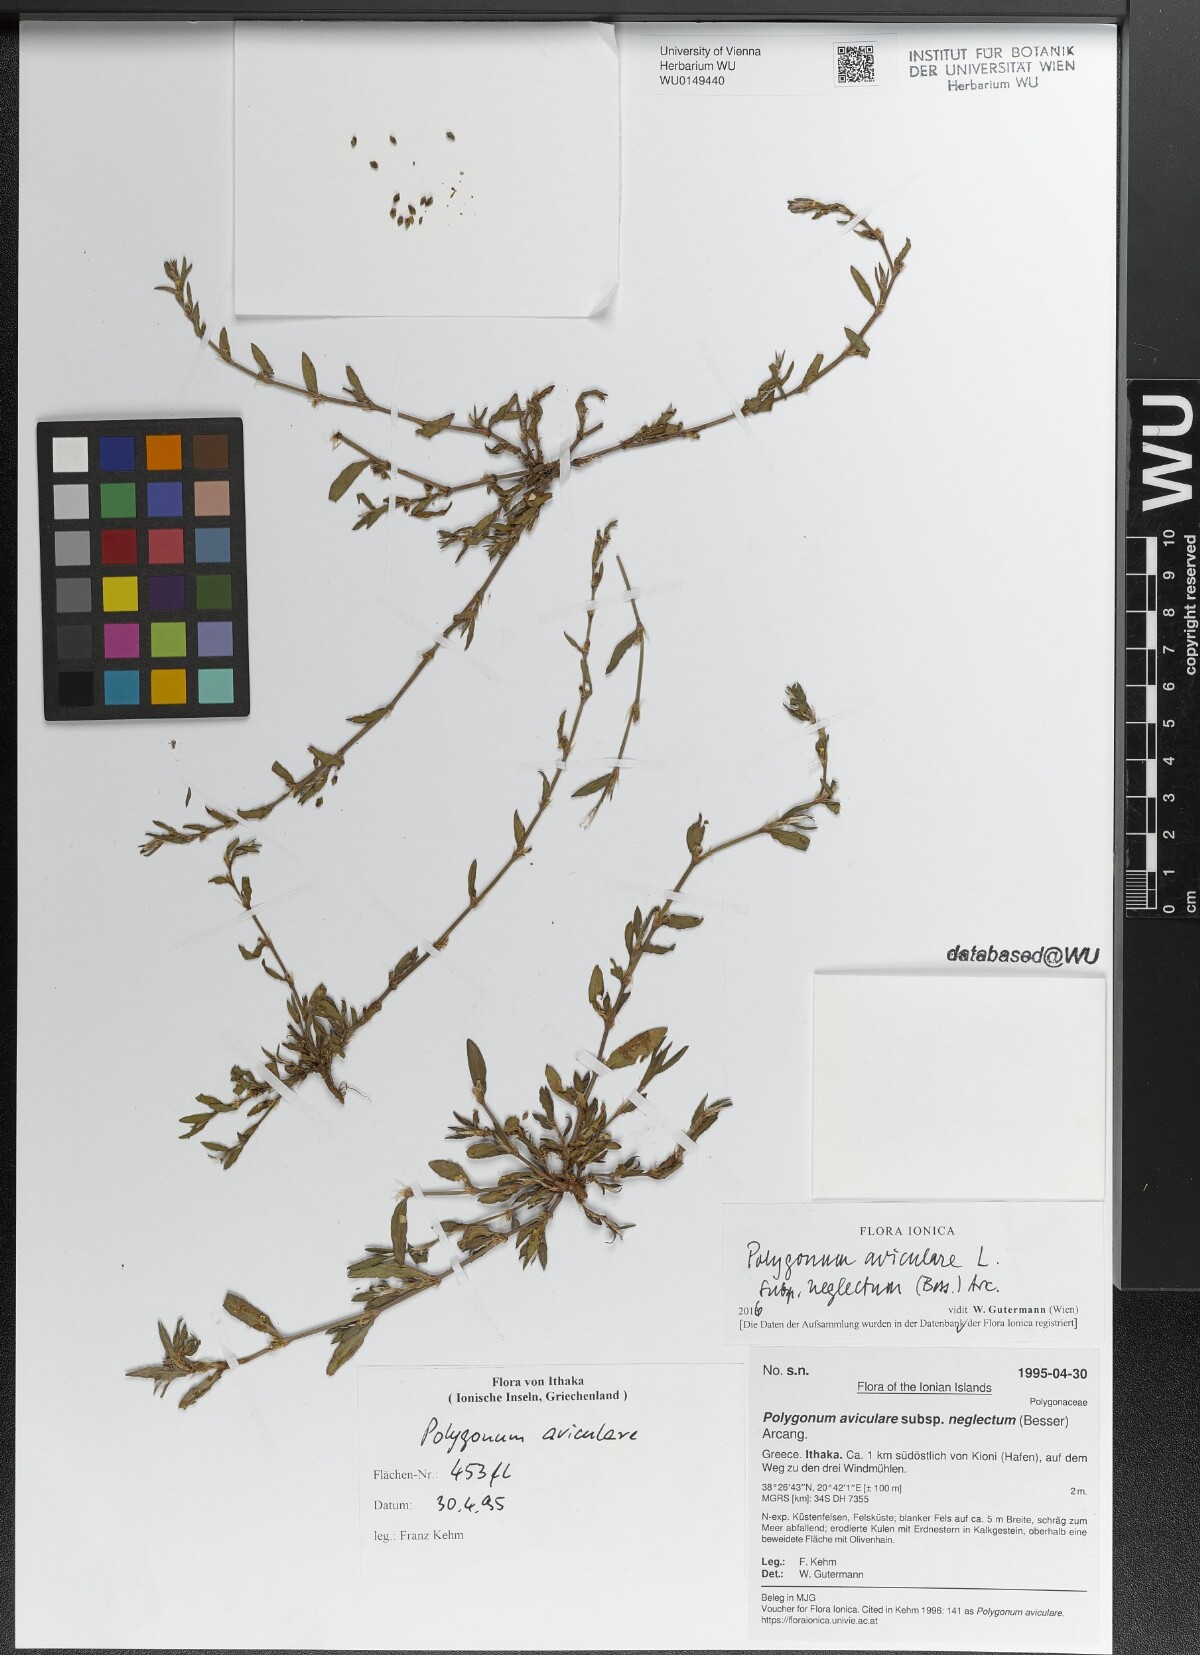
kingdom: Plantae
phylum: Tracheophyta
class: Magnoliopsida
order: Caryophyllales
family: Polygonaceae
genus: Polygonum
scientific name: Polygonum aviculare
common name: Prostrate knotweed
